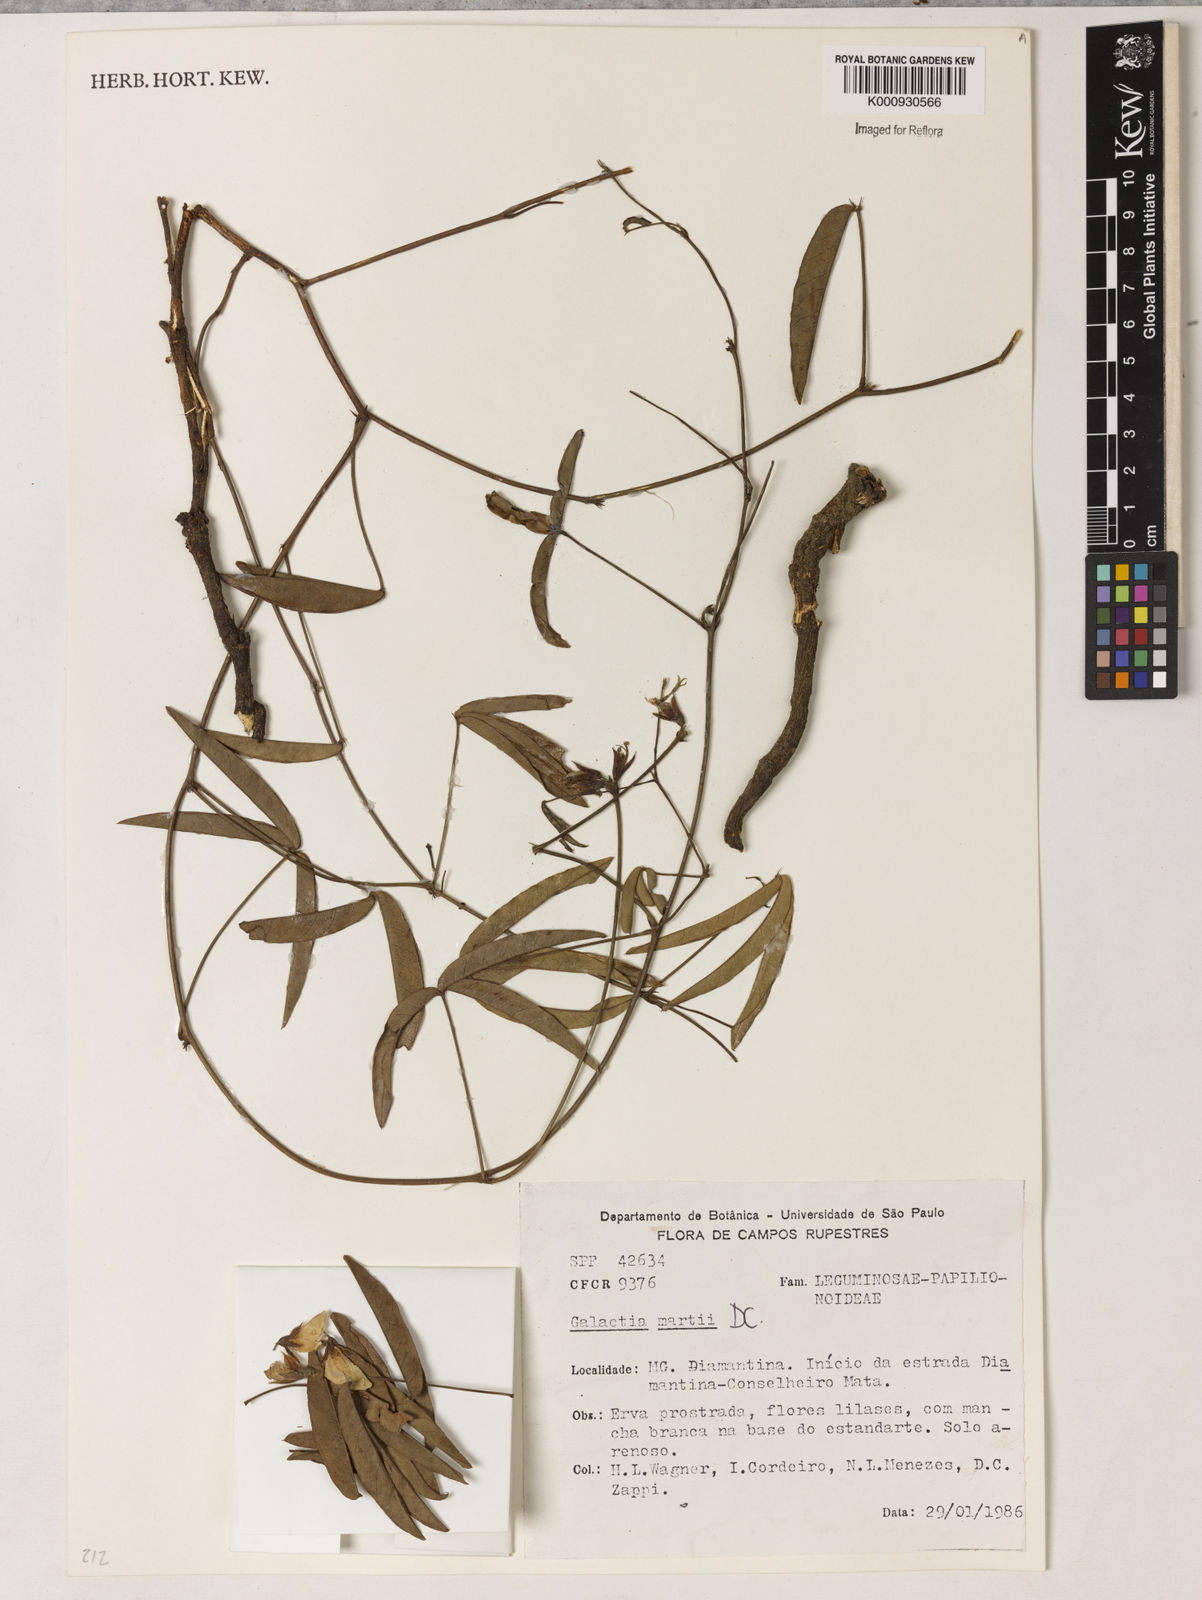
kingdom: Plantae
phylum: Tracheophyta
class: Magnoliopsida
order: Fabales
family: Fabaceae
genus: Betencourtia
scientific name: Betencourtia martii
